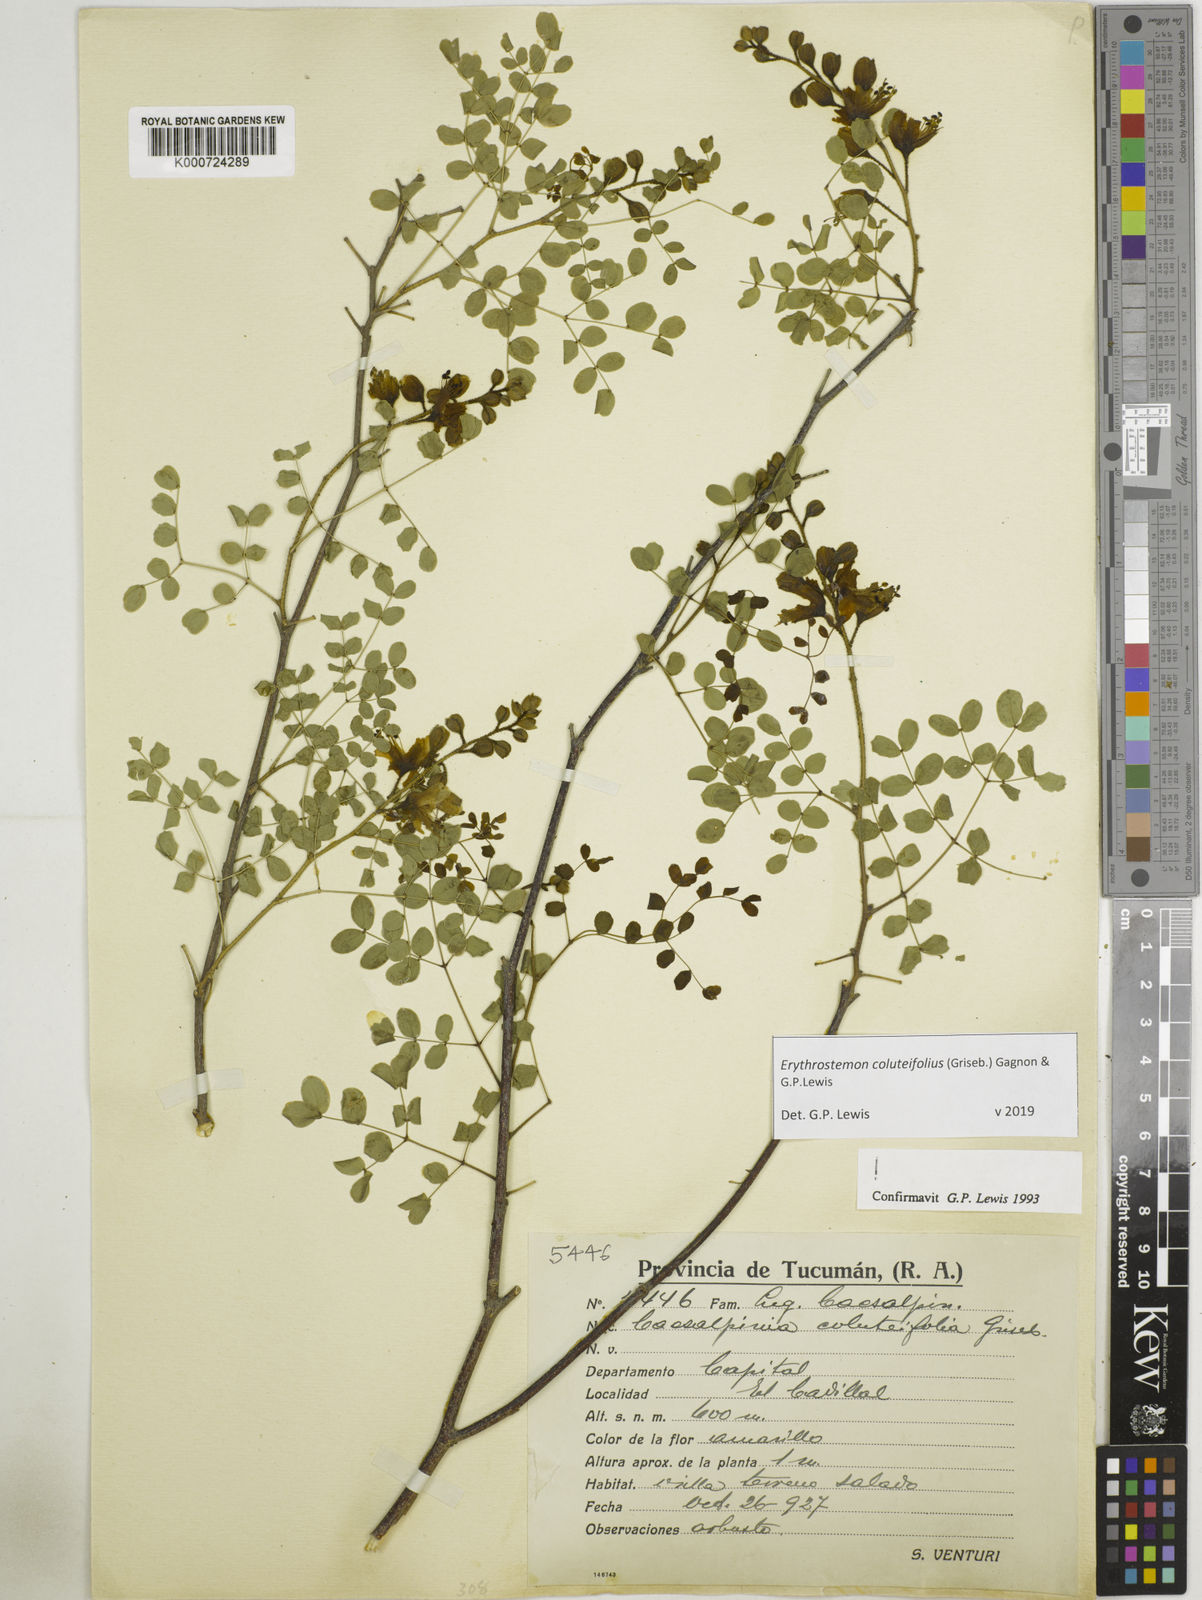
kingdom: Plantae
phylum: Tracheophyta
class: Magnoliopsida
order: Fabales
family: Fabaceae
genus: Erythrostemon
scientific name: Erythrostemon coluteifolius
